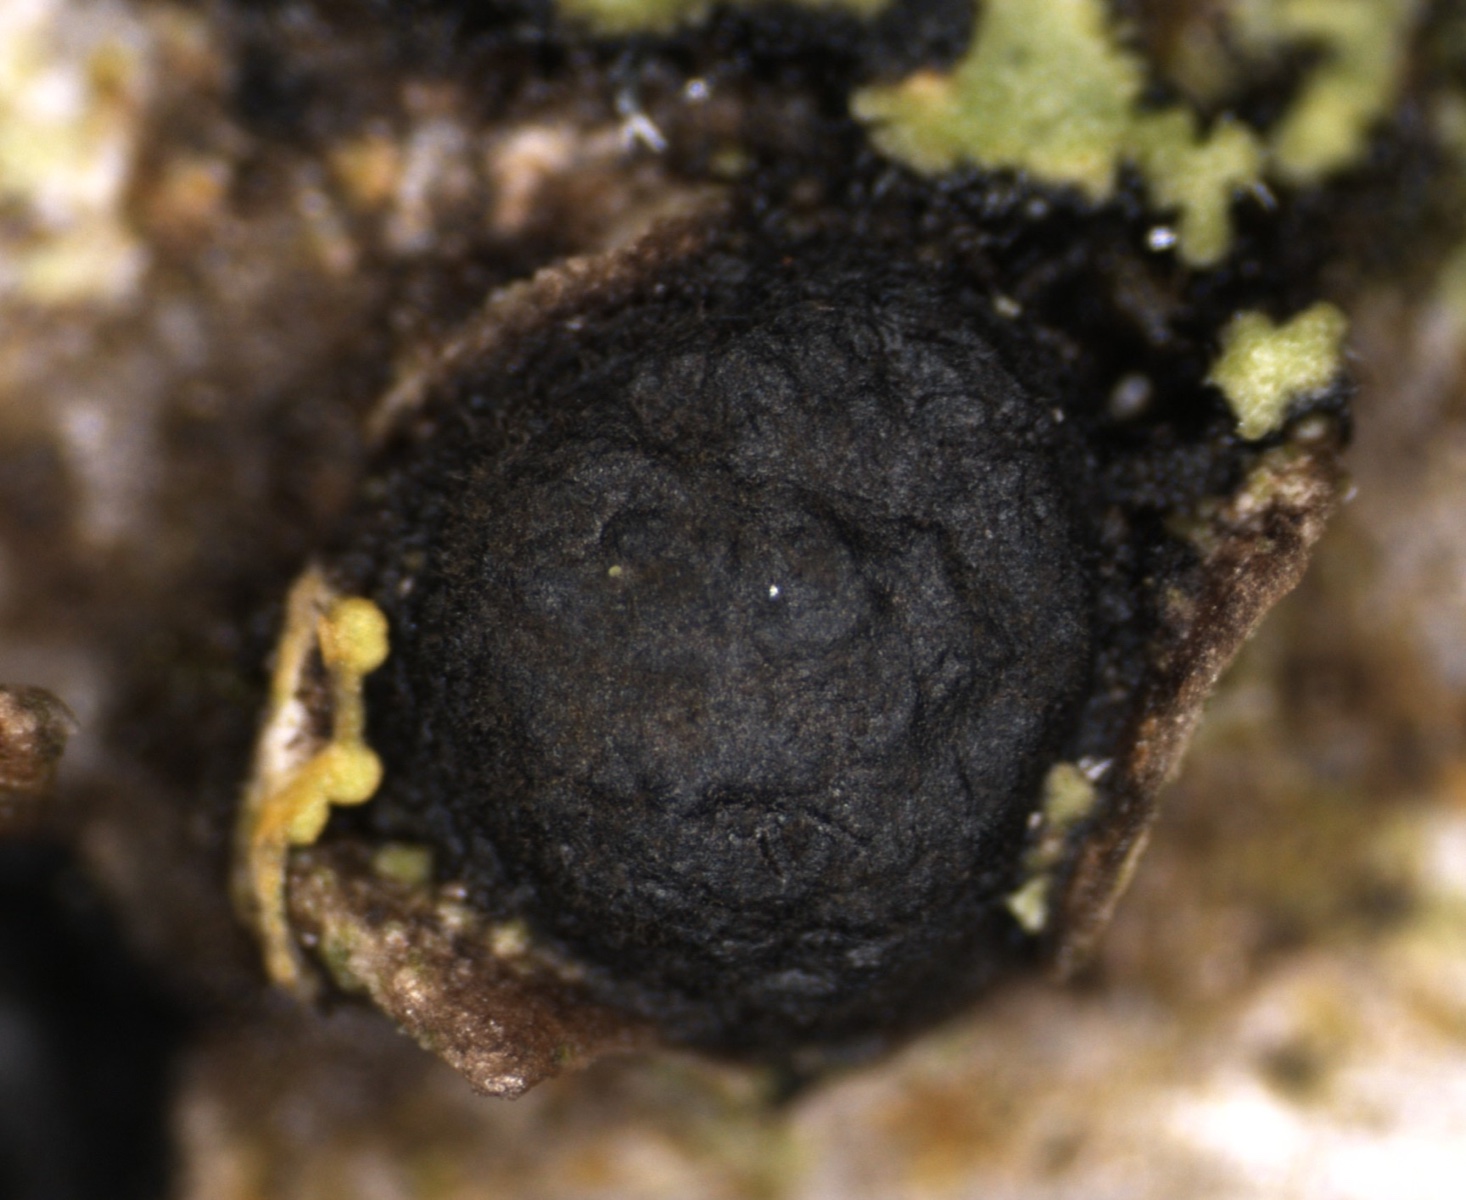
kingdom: Fungi
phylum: Ascomycota
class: Sordariomycetes
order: Xylariales
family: Diatrypaceae
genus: Diatrypella
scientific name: Diatrypella quercina
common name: ege-kulskorpe
